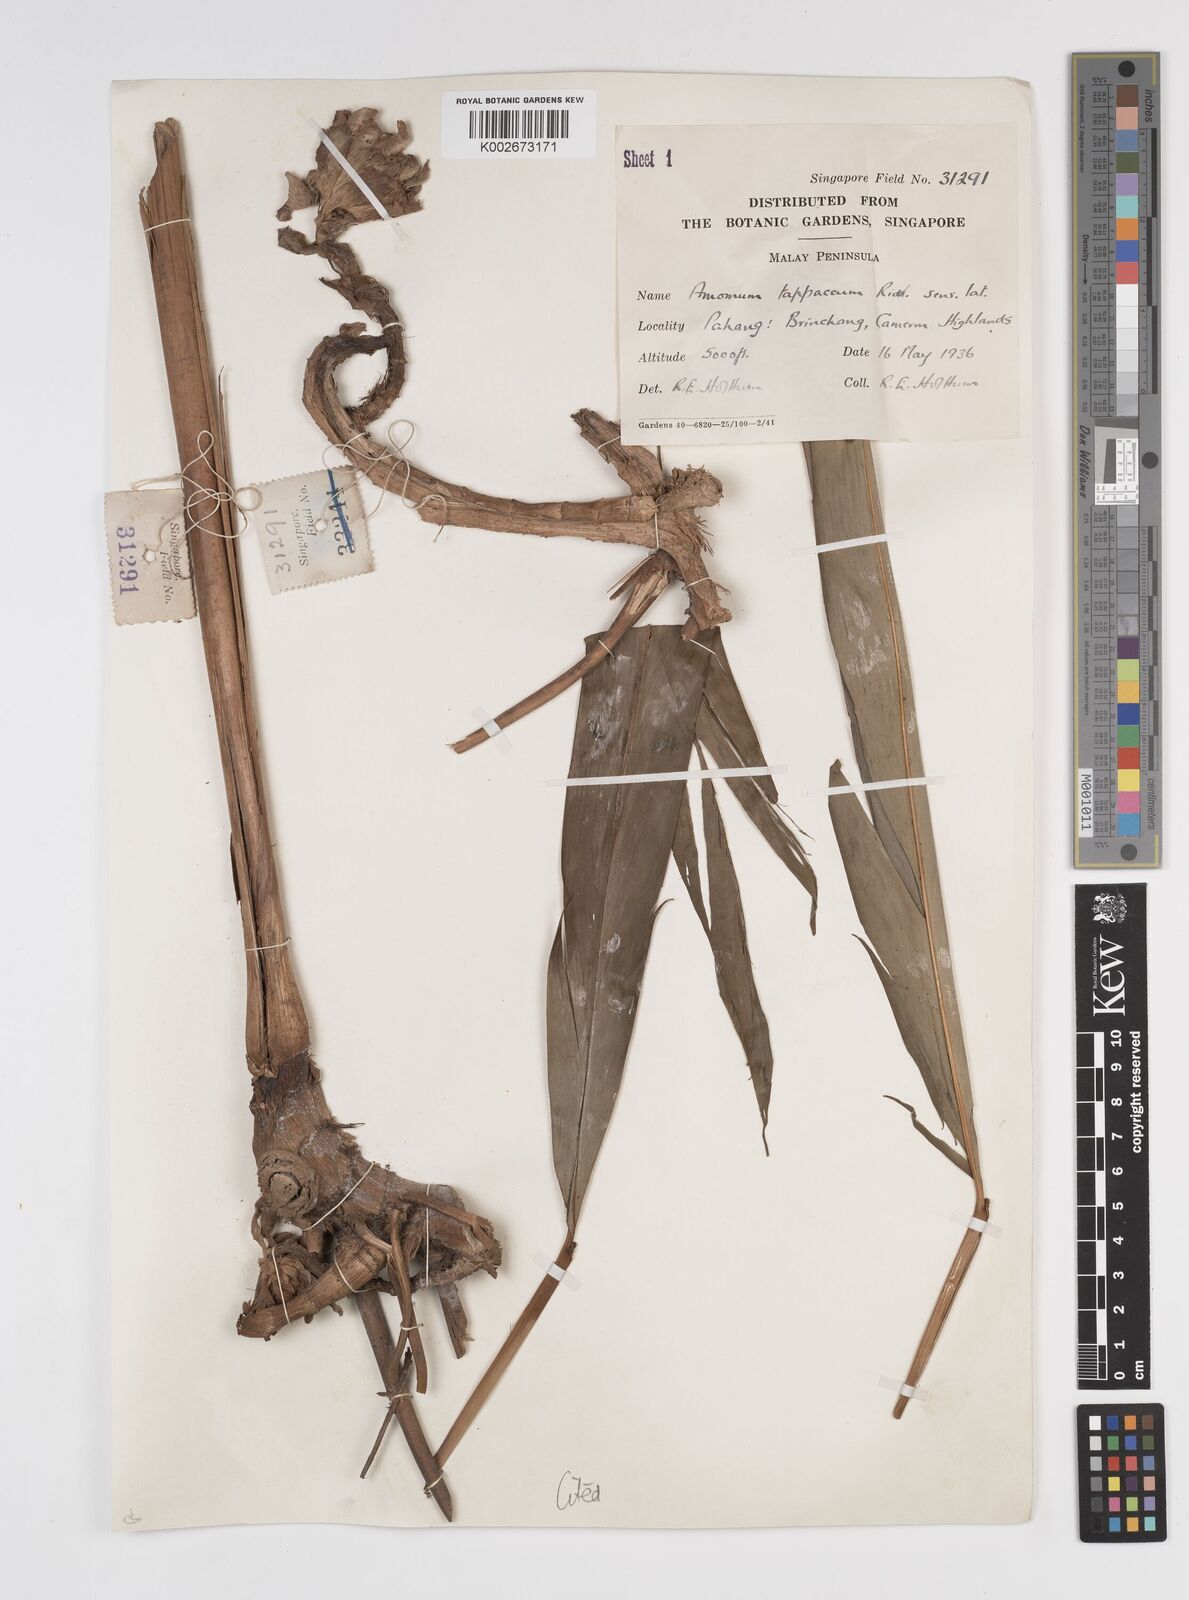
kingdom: Plantae
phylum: Tracheophyta
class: Liliopsida
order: Zingiberales
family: Zingiberaceae
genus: Meistera
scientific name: Meistera lappacea
